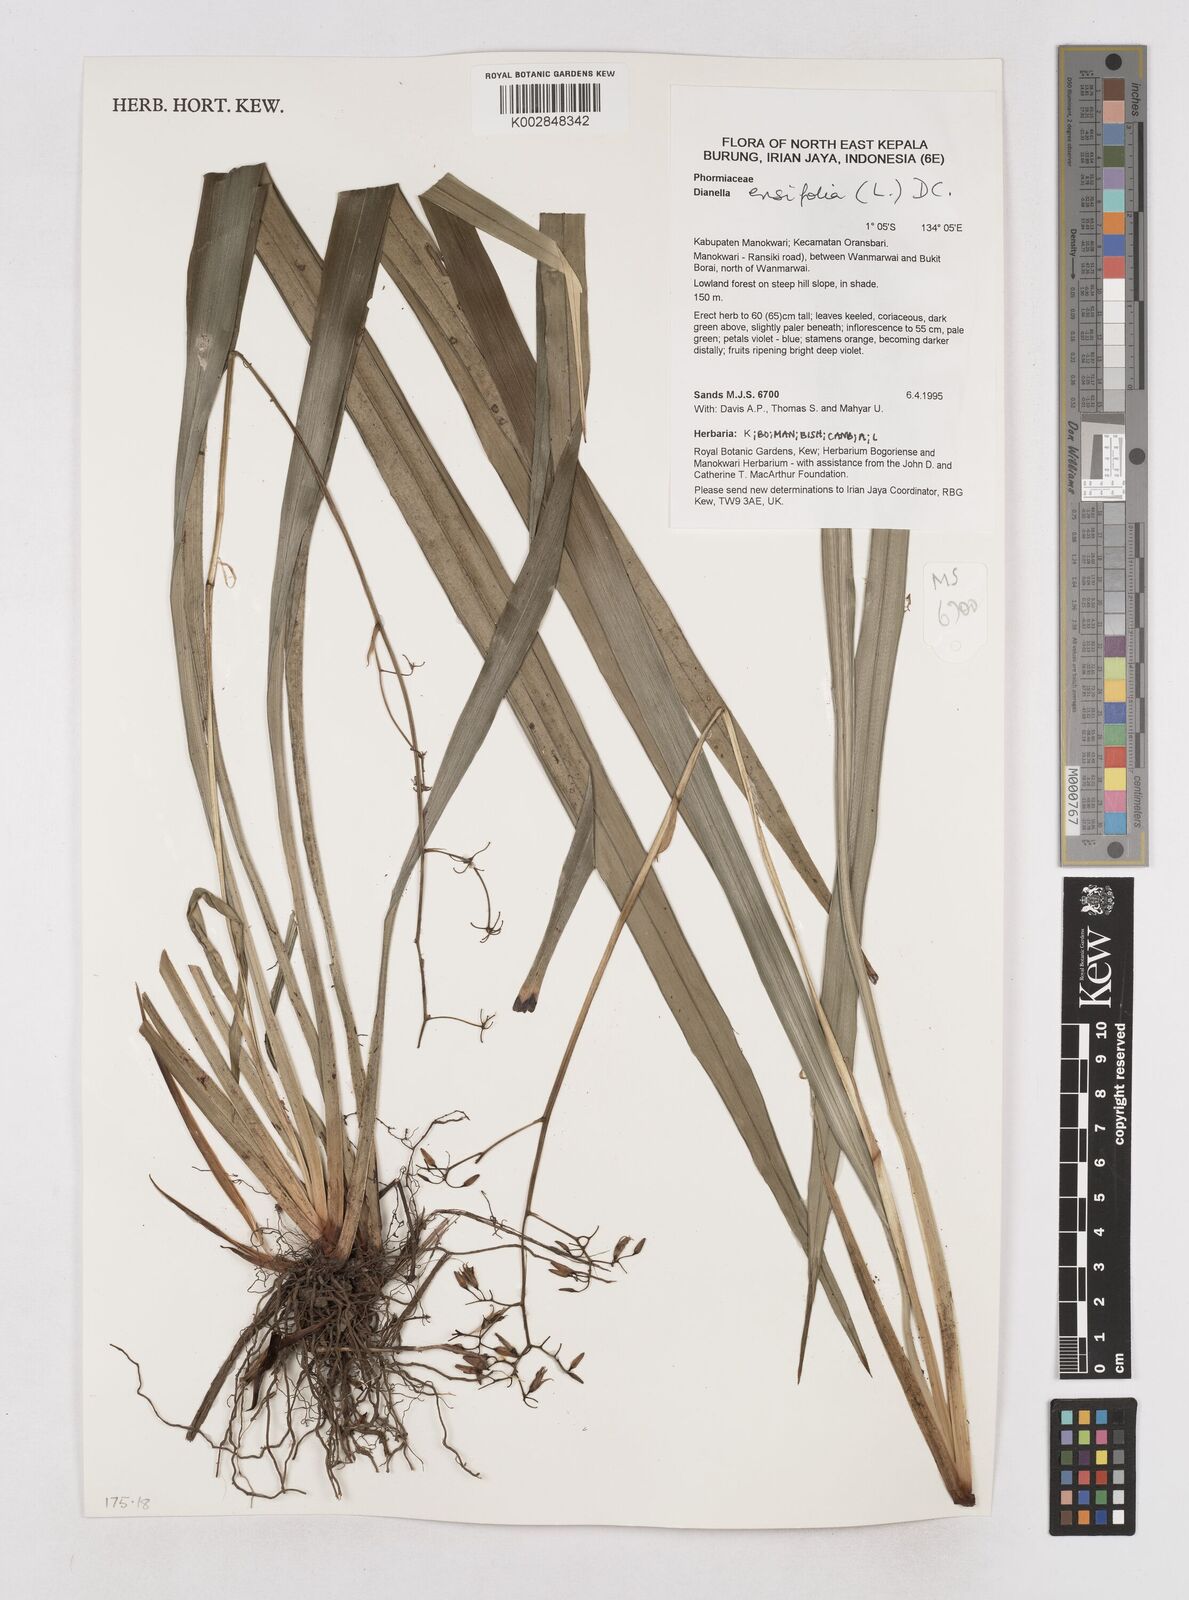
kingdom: Plantae
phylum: Tracheophyta
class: Liliopsida
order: Asparagales
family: Asphodelaceae
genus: Dianella
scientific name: Dianella ensifolia
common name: New zealand lilyplant
